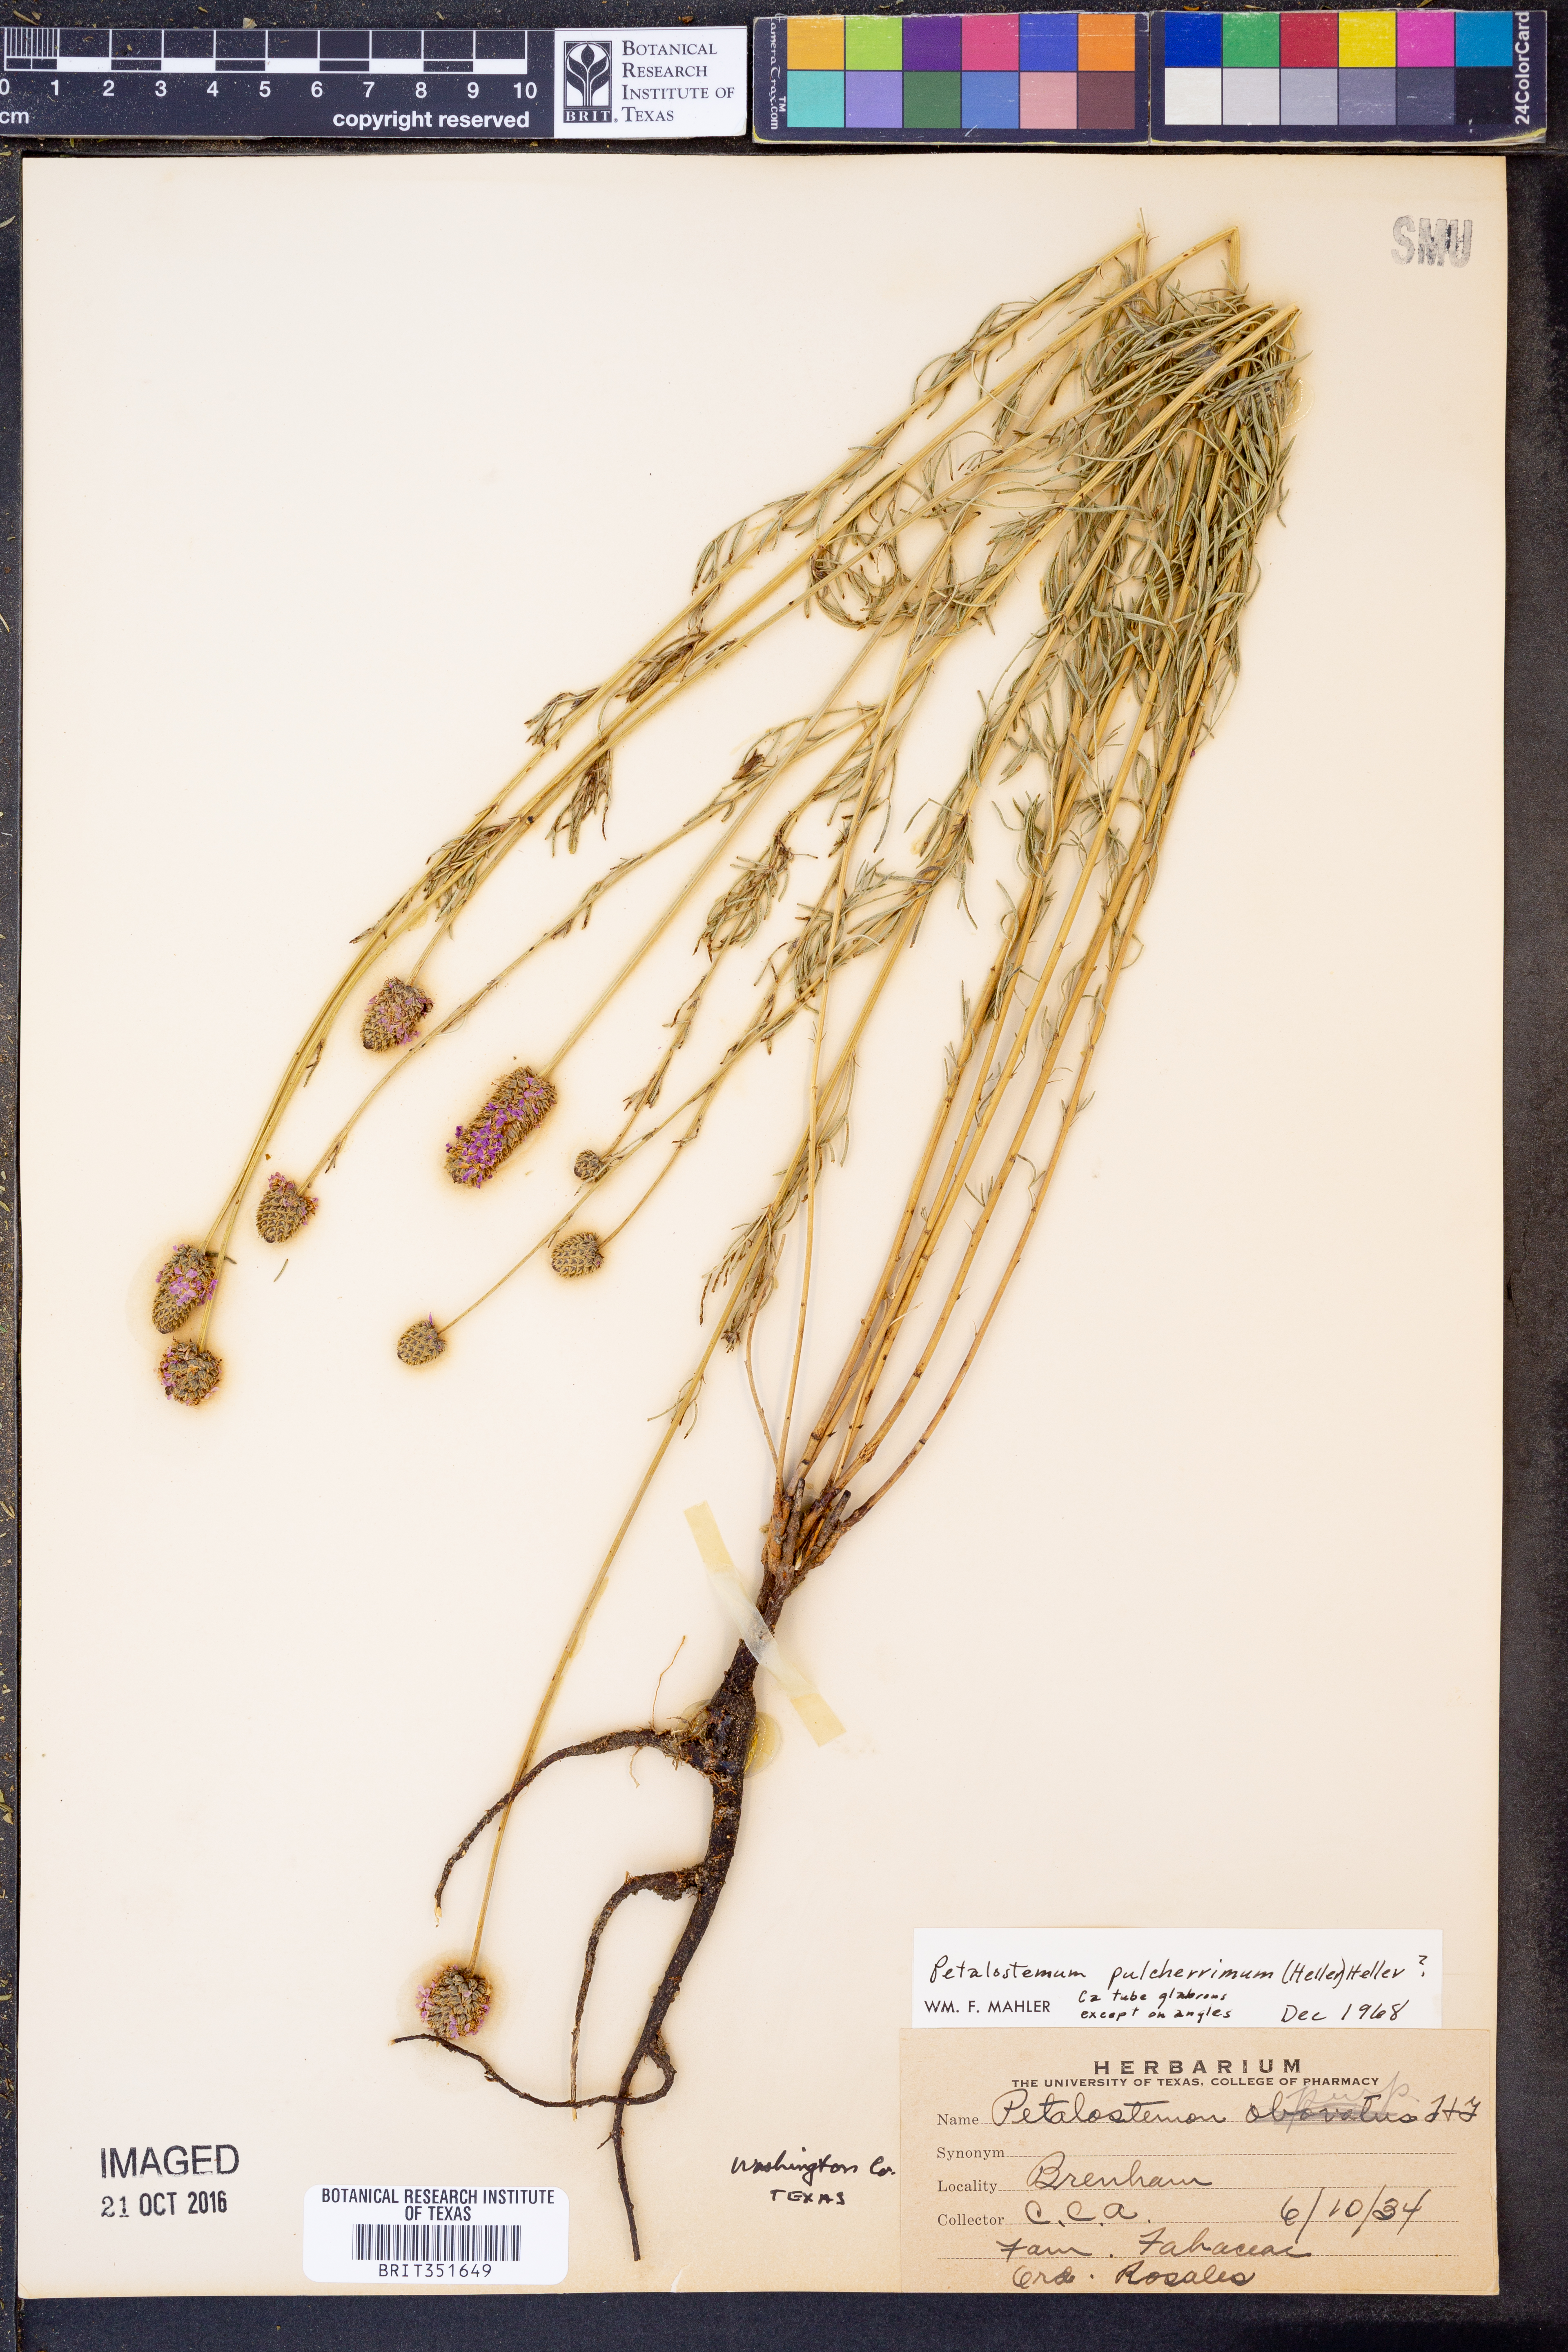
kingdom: Plantae
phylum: Tracheophyta
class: Magnoliopsida
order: Fabales
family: Fabaceae
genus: Dalea
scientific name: Dalea compacta
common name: Compact prairie-clover
